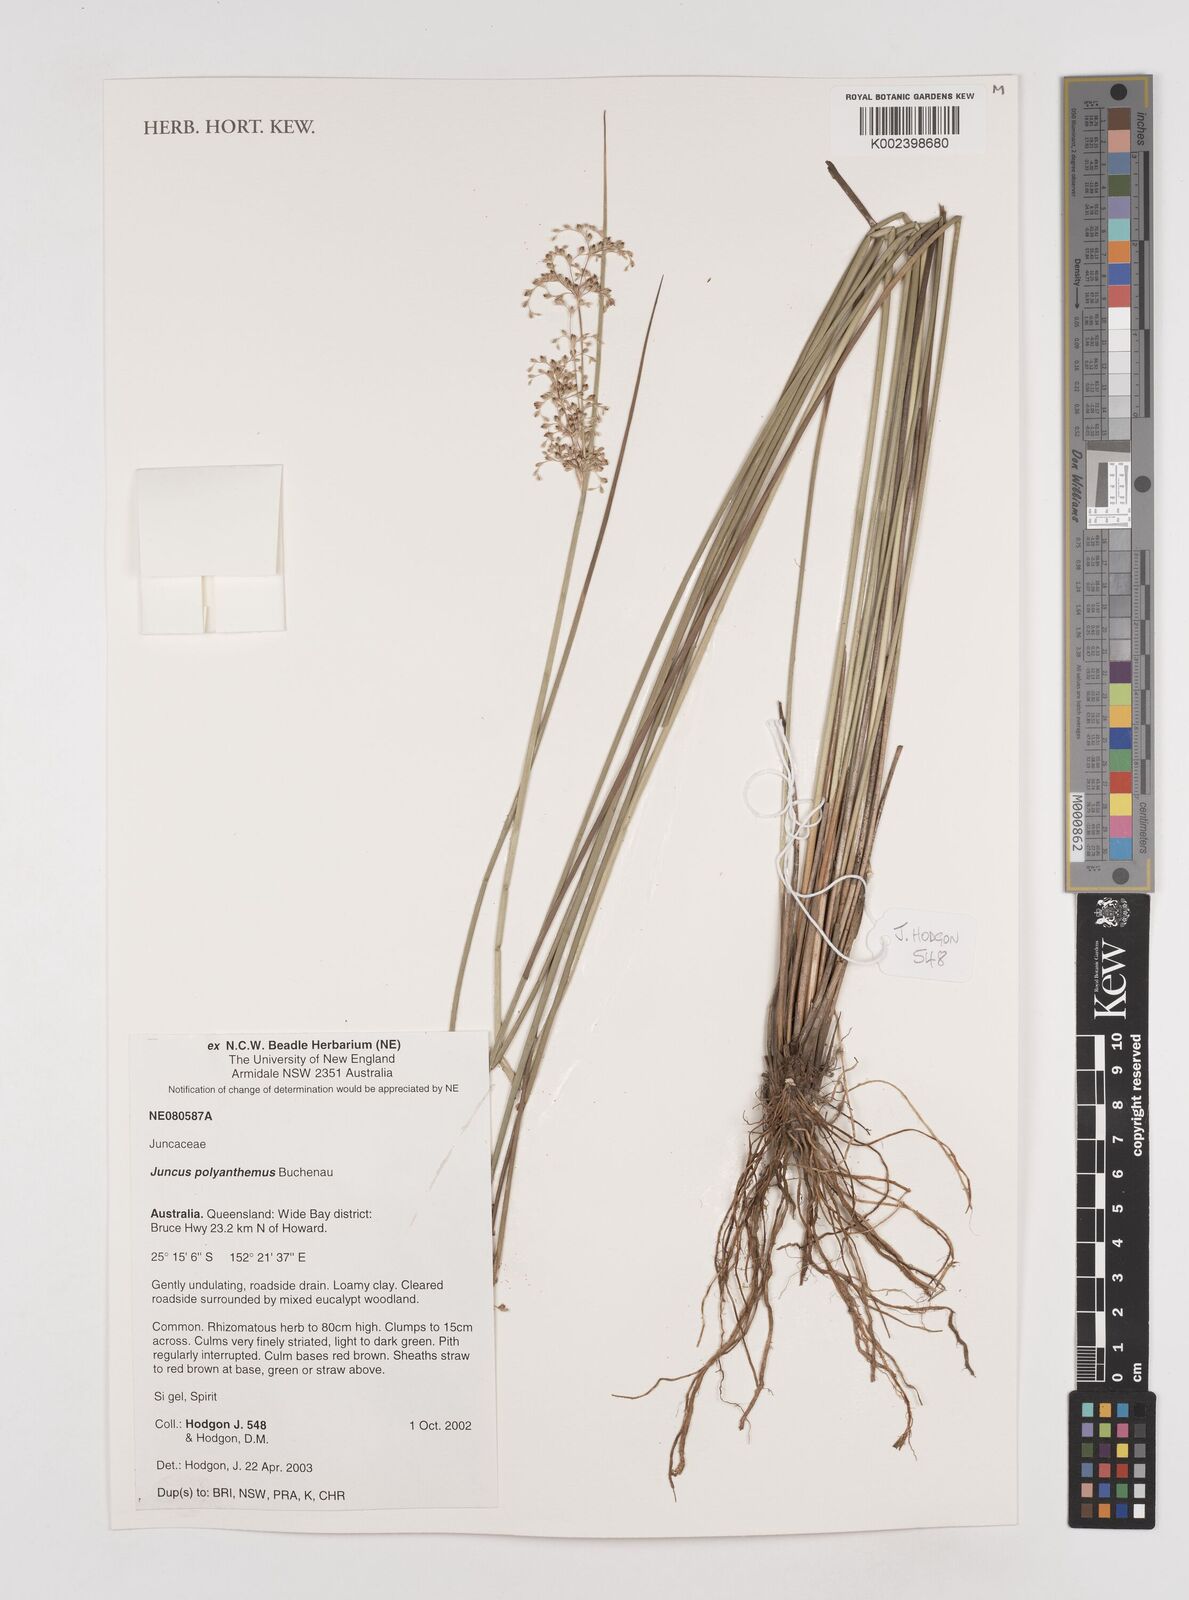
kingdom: Plantae
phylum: Tracheophyta
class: Liliopsida
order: Poales
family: Juncaceae
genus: Juncus
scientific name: Juncus polyanthemus
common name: Manyflower rush
